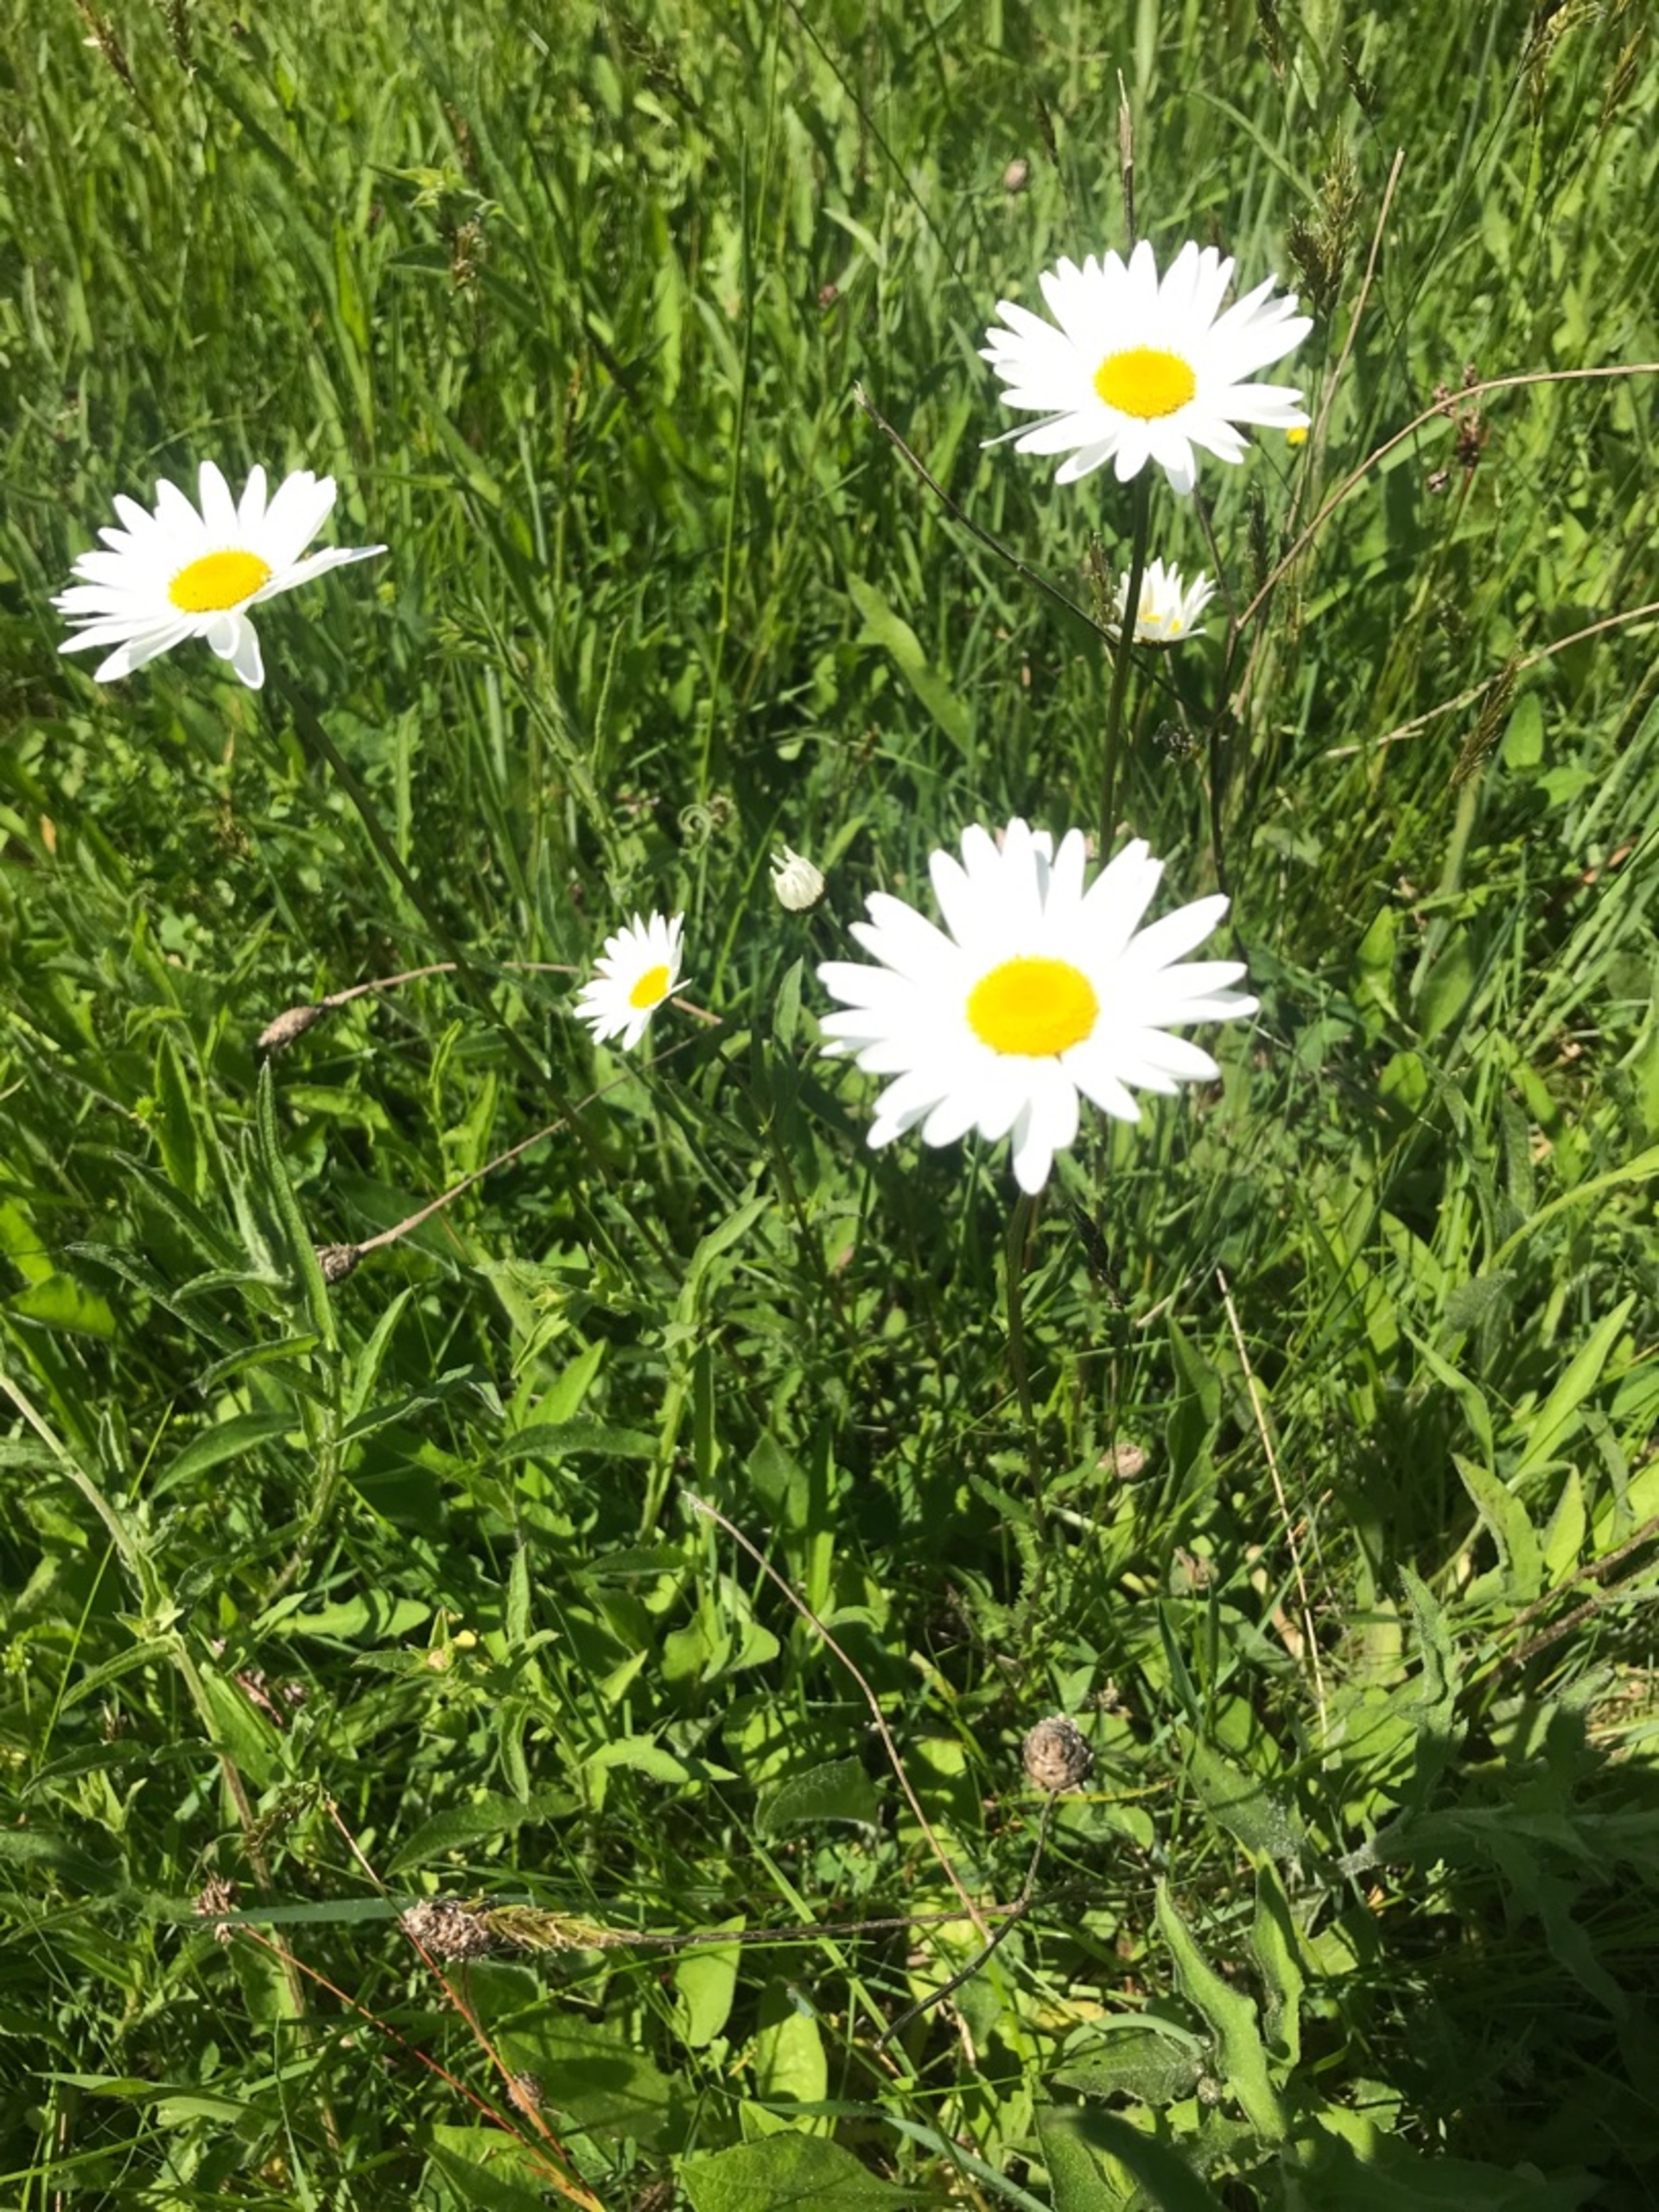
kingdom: Plantae
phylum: Tracheophyta
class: Magnoliopsida
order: Asterales
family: Asteraceae
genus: Leucanthemum
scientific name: Leucanthemum vulgare
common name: Hvid okseøje
